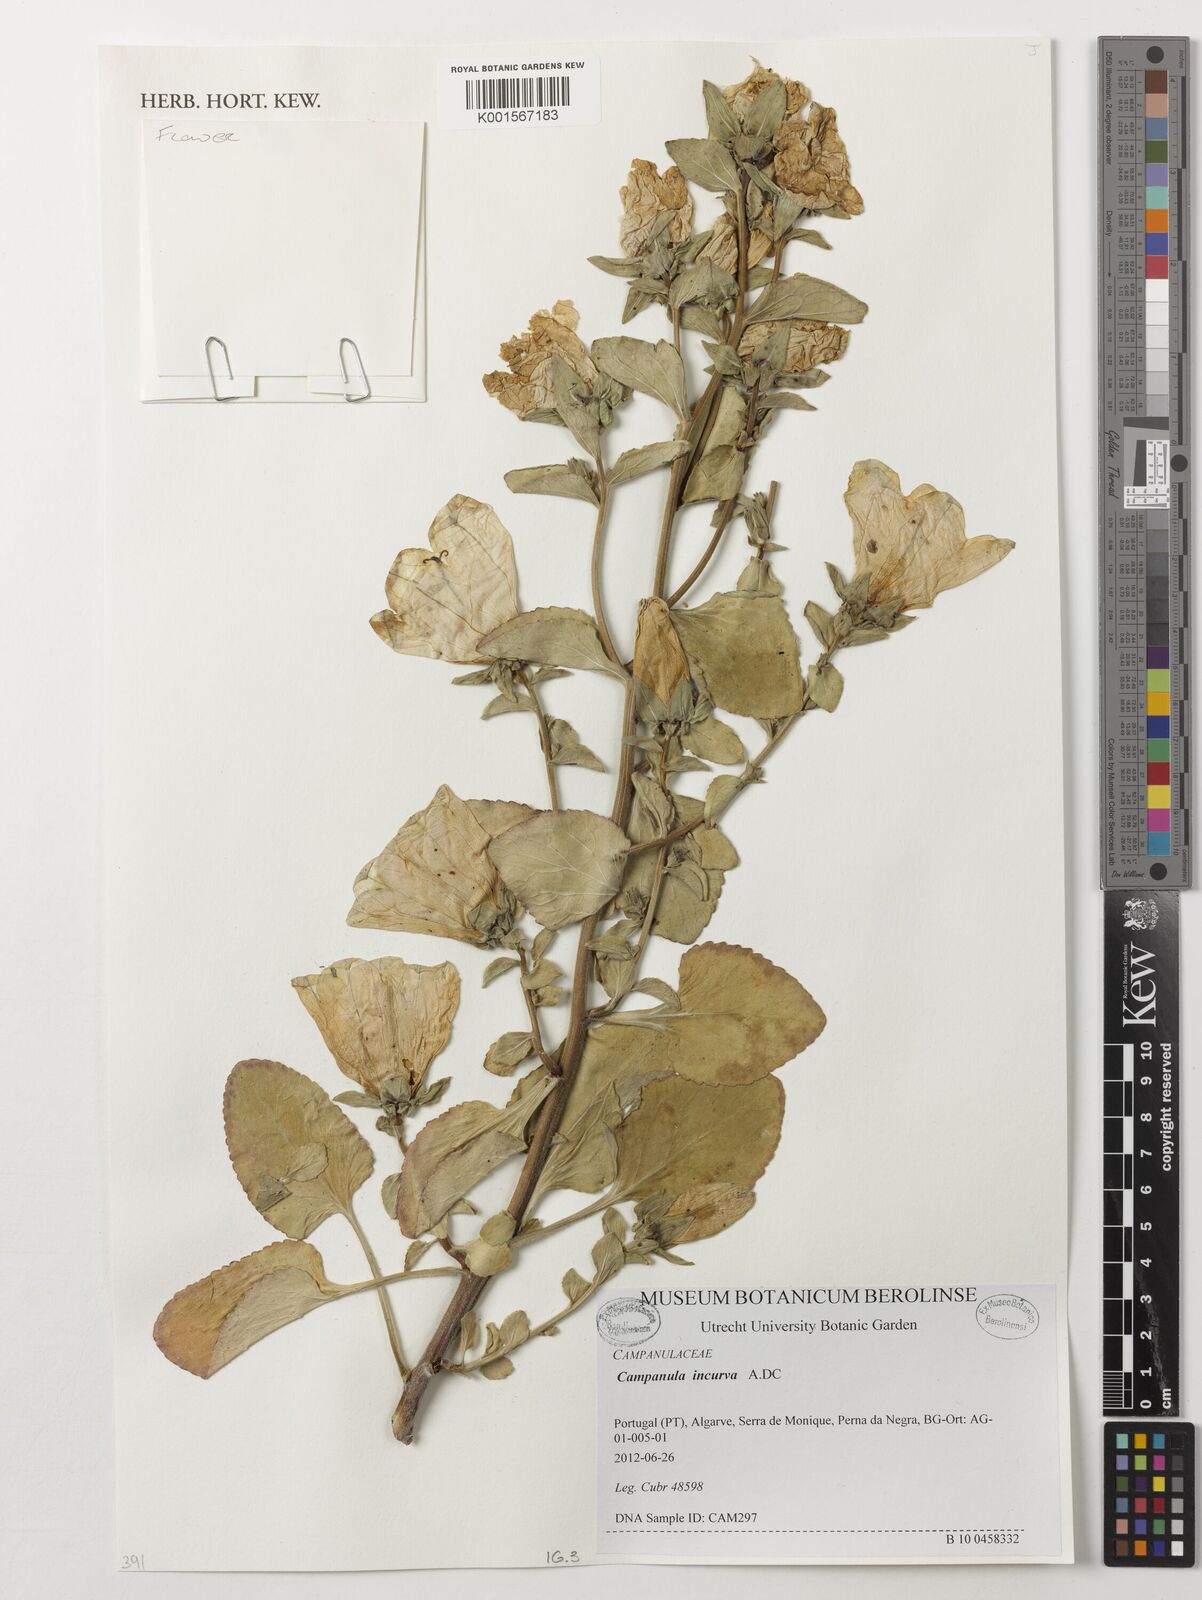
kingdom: Plantae
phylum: Tracheophyta
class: Magnoliopsida
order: Asterales
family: Campanulaceae
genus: Campanula
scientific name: Campanula incurva
